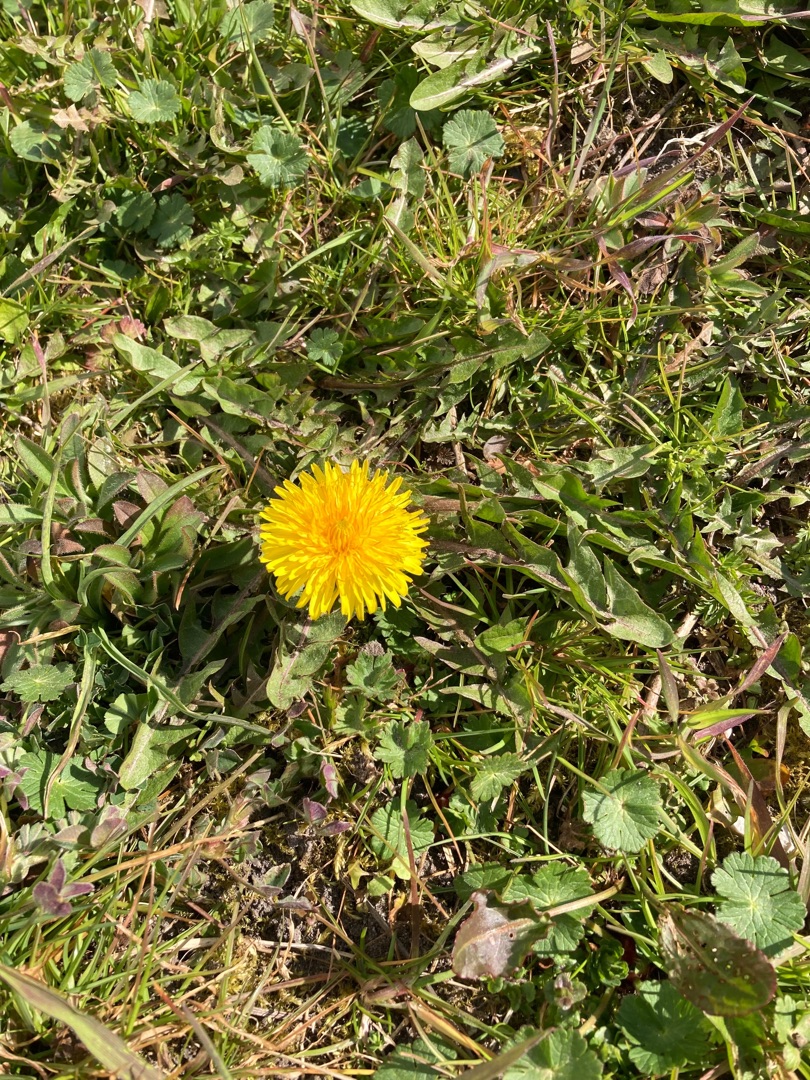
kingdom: Plantae
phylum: Tracheophyta
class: Magnoliopsida
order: Asterales
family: Asteraceae
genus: Taraxacum
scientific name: Taraxacum
